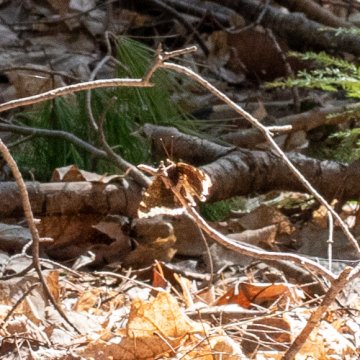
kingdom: Animalia
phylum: Arthropoda
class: Insecta
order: Lepidoptera
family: Nymphalidae
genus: Nymphalis
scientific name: Nymphalis antiopa
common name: Mourning Cloak
